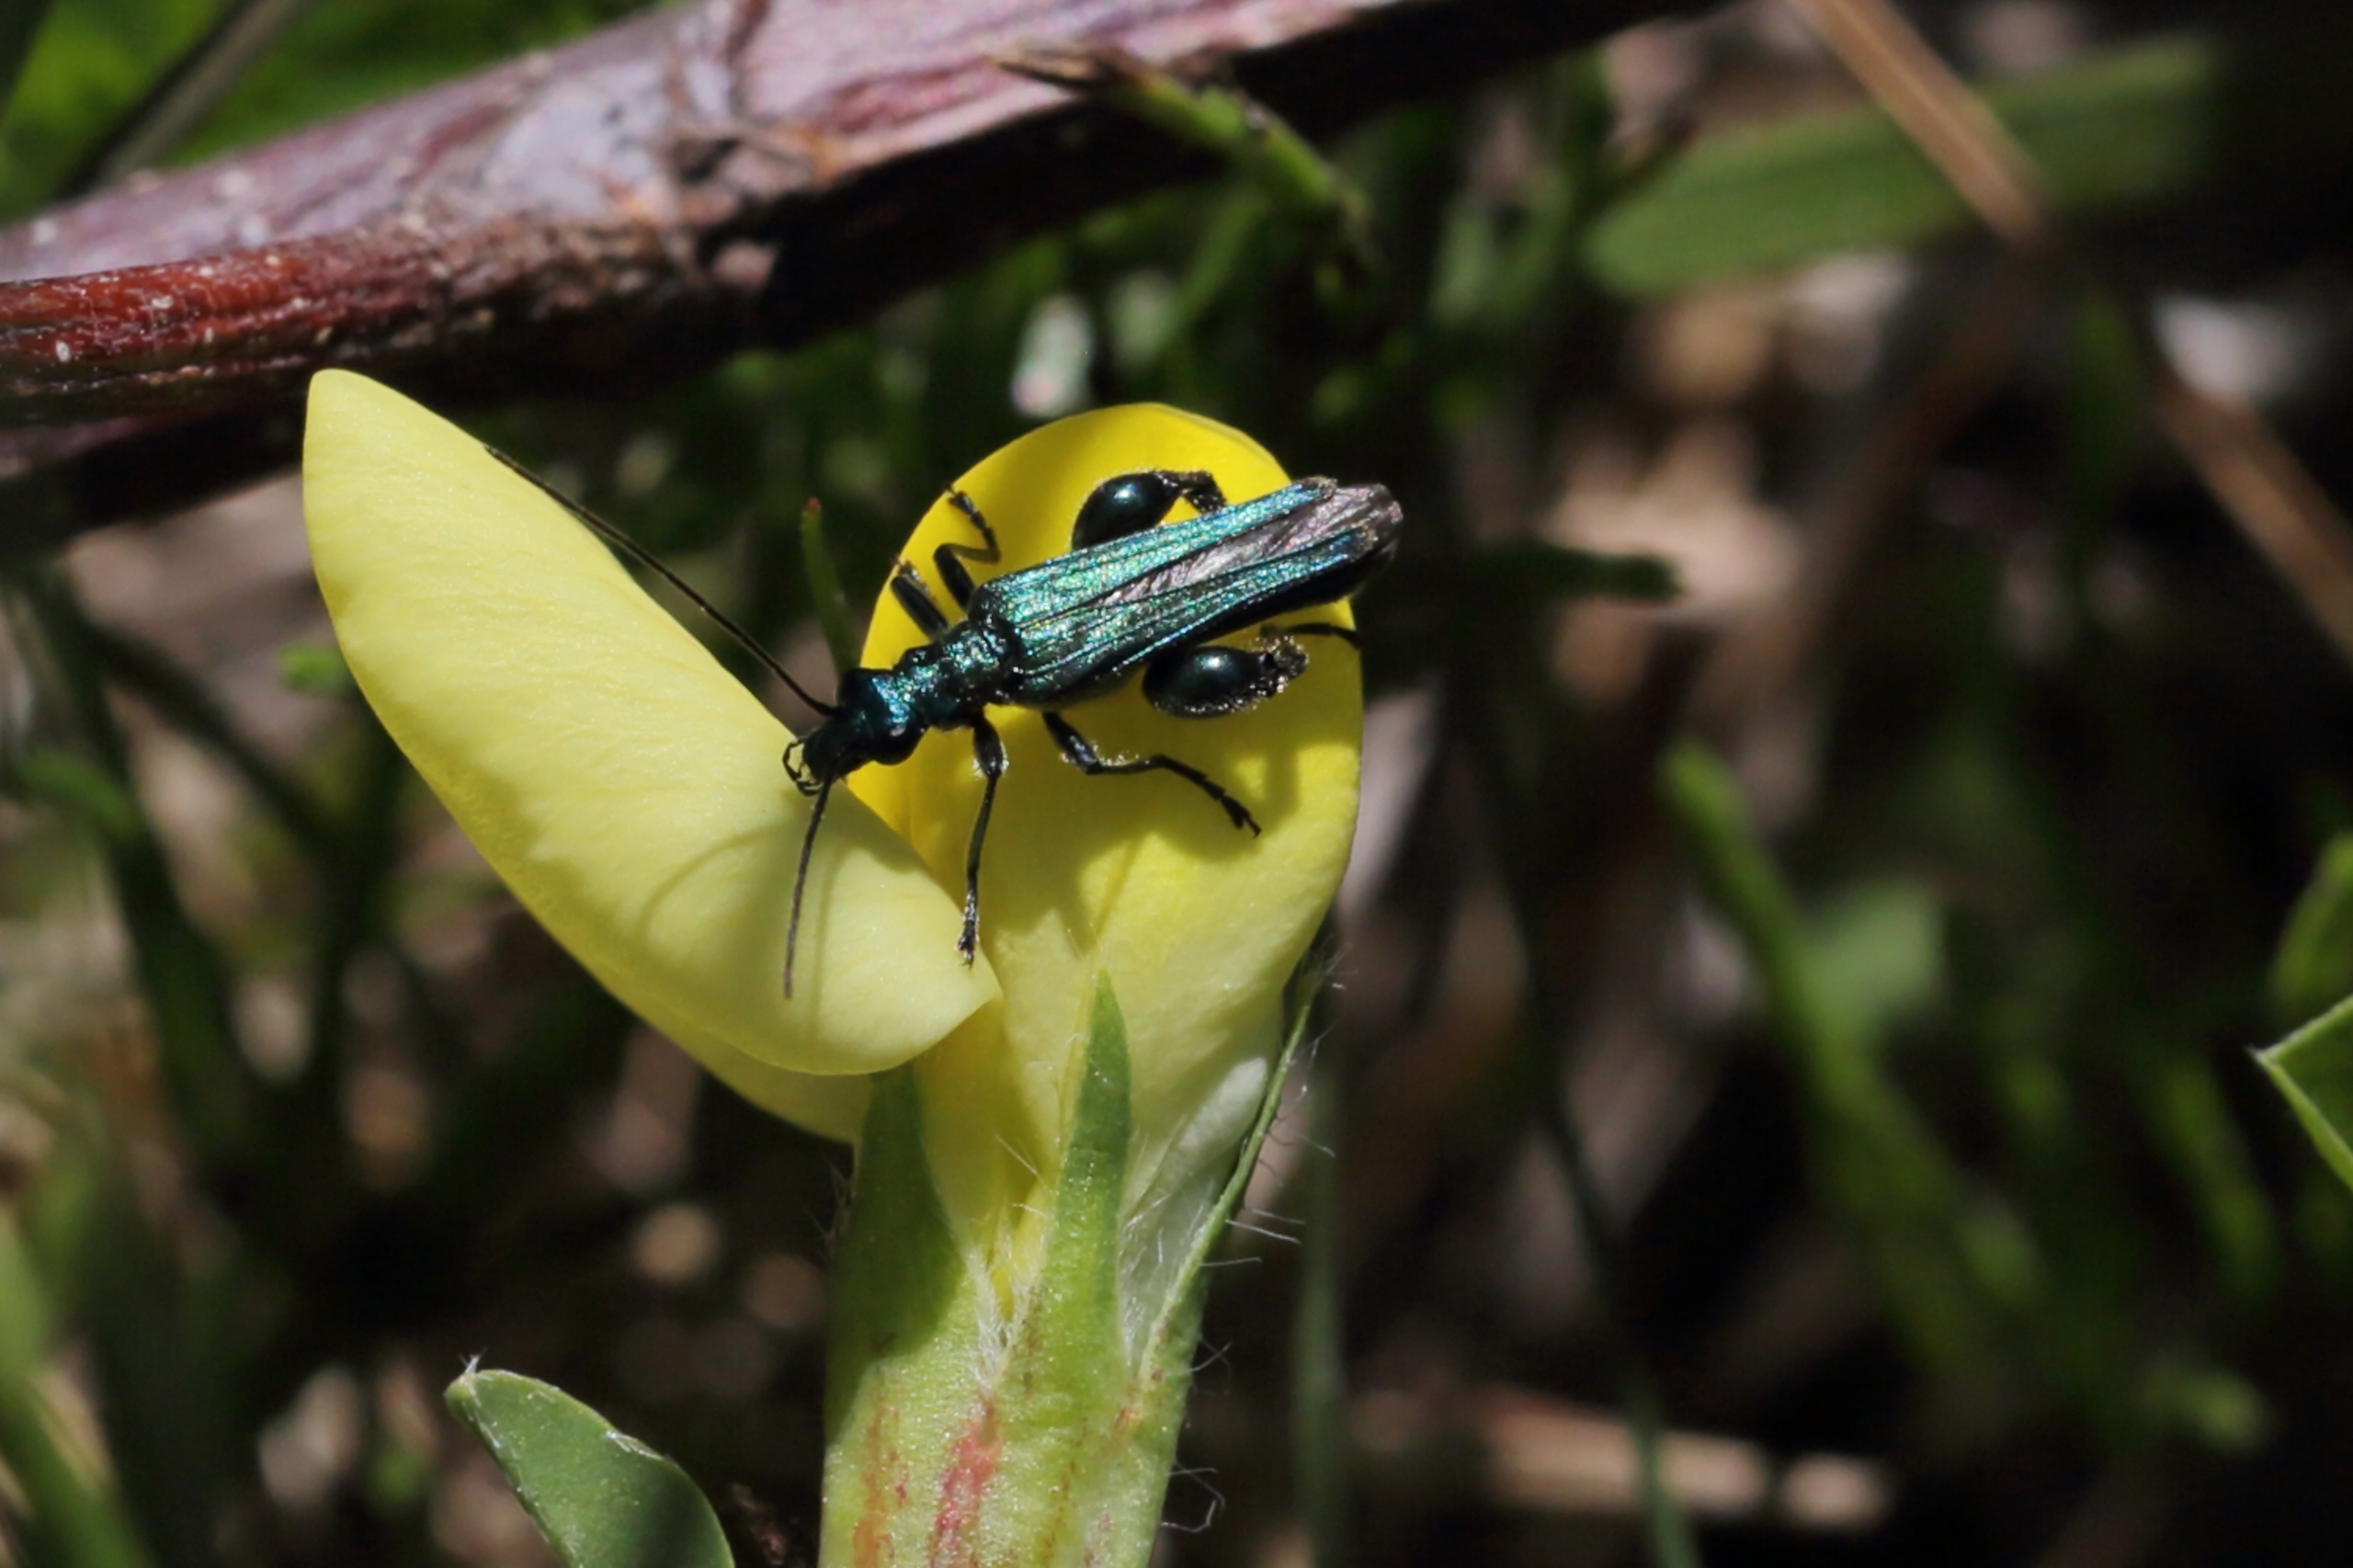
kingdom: Animalia
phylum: Arthropoda
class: Insecta
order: Coleoptera
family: Oedemeridae
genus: Oedemera
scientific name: Oedemera nobilis
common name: Tyklårssolbille
